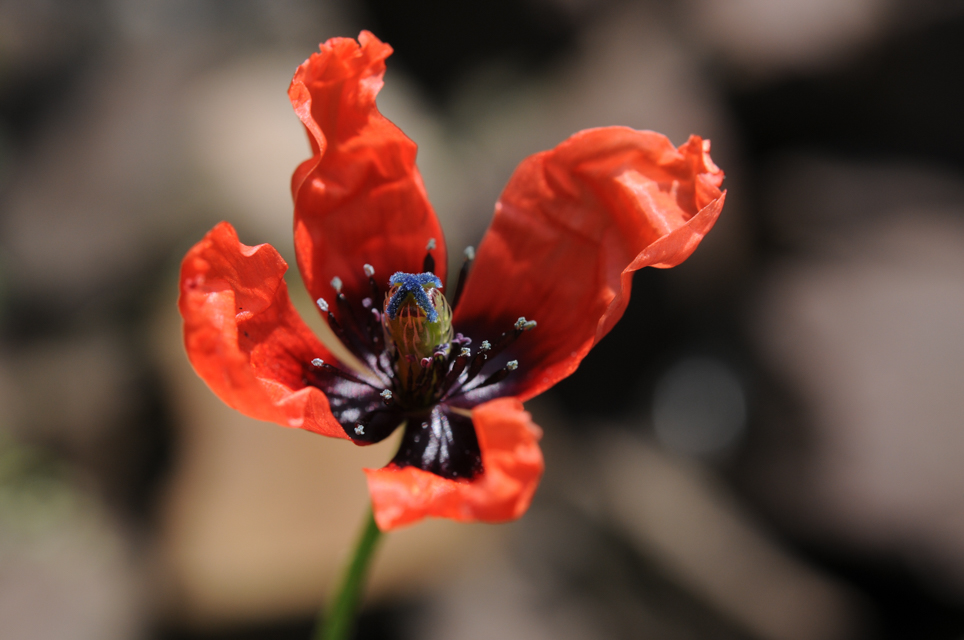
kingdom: Plantae
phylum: Tracheophyta
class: Magnoliopsida
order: Ranunculales
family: Papaveraceae
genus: Roemeria
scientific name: Roemeria argemone
